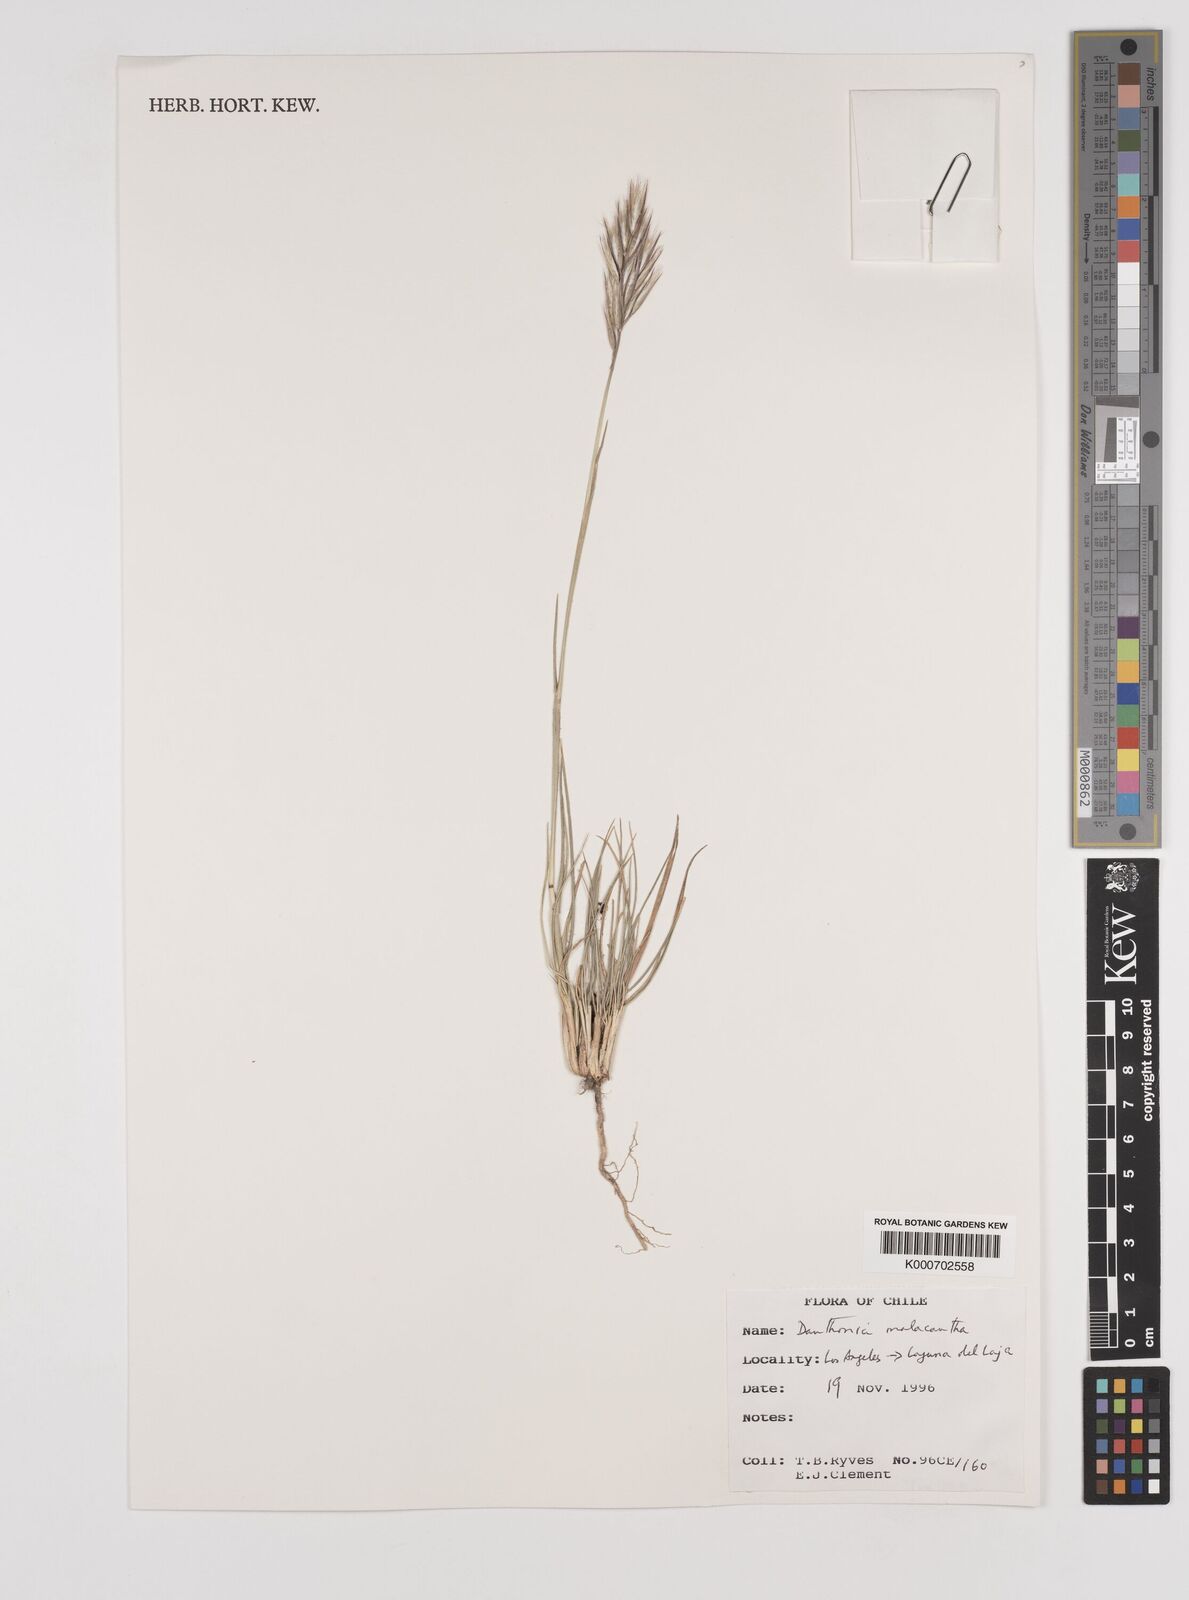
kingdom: Plantae
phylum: Tracheophyta
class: Liliopsida
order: Poales
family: Poaceae
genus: Danthonia
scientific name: Danthonia malacantha
